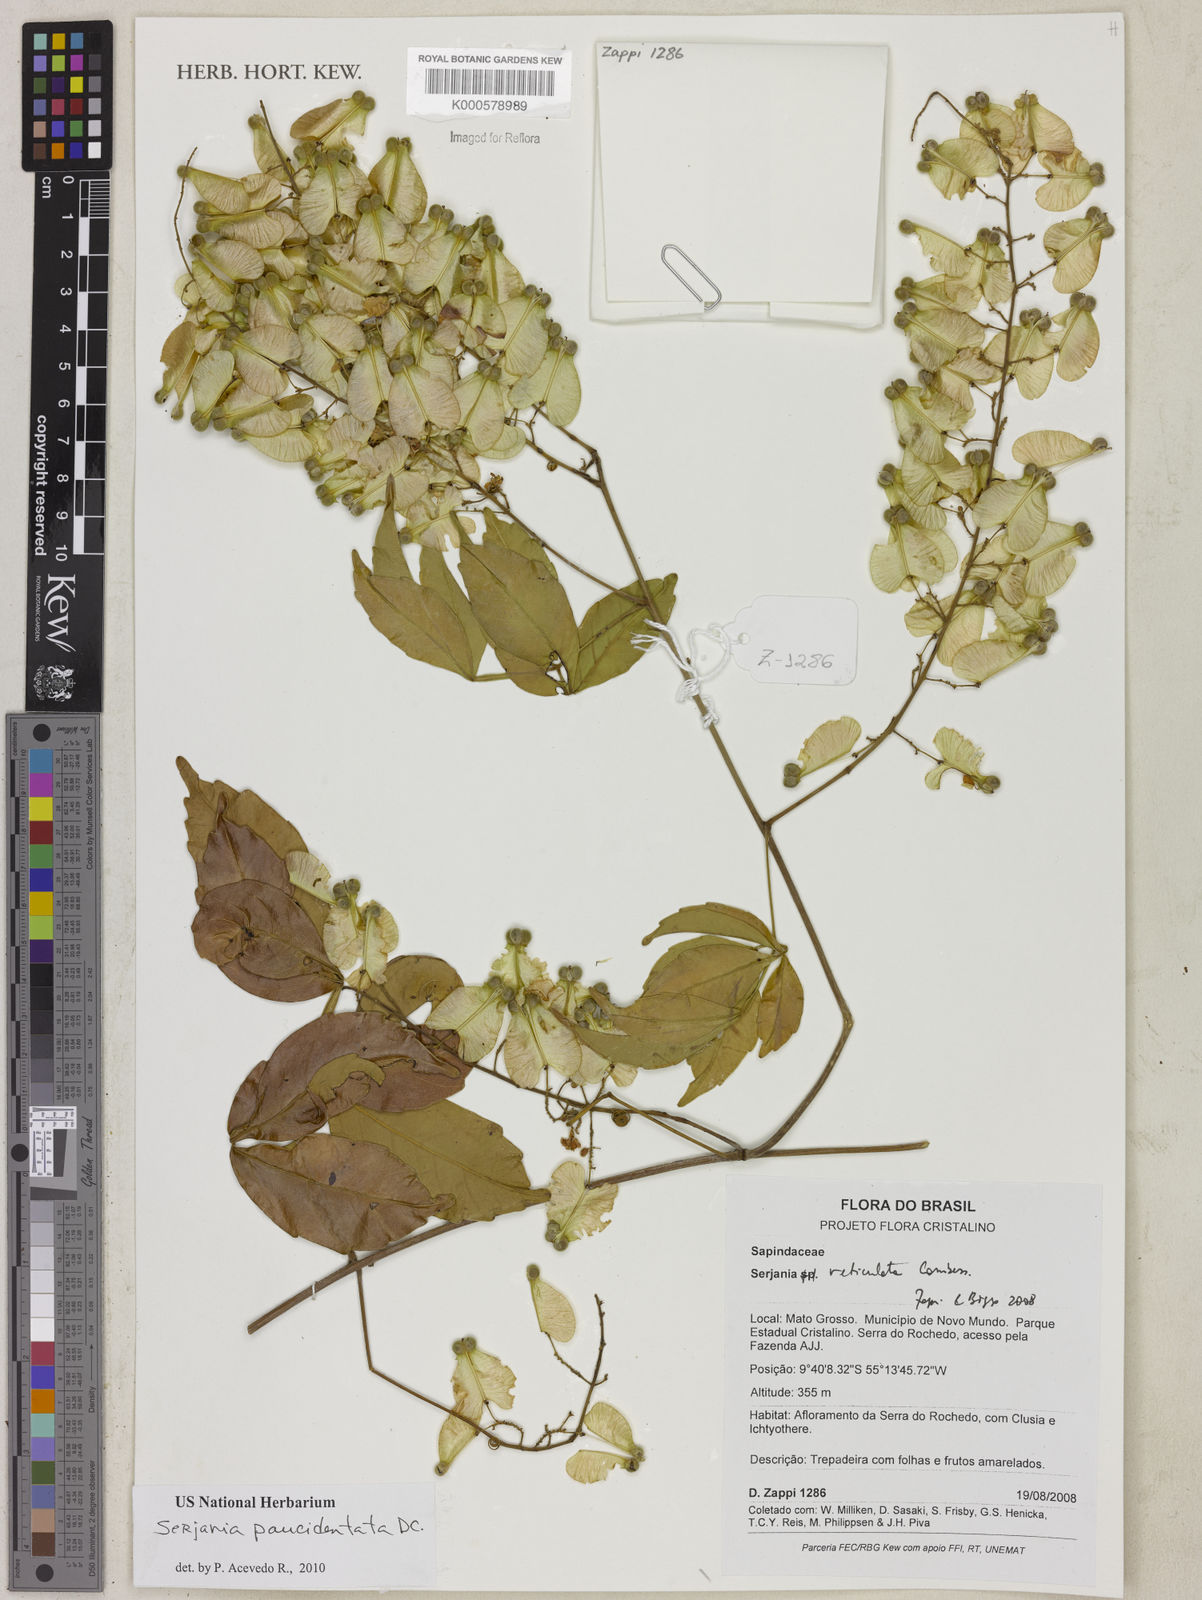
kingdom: Plantae
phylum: Tracheophyta
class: Magnoliopsida
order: Sapindales
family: Sapindaceae
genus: Serjania
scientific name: Serjania paucidentata
